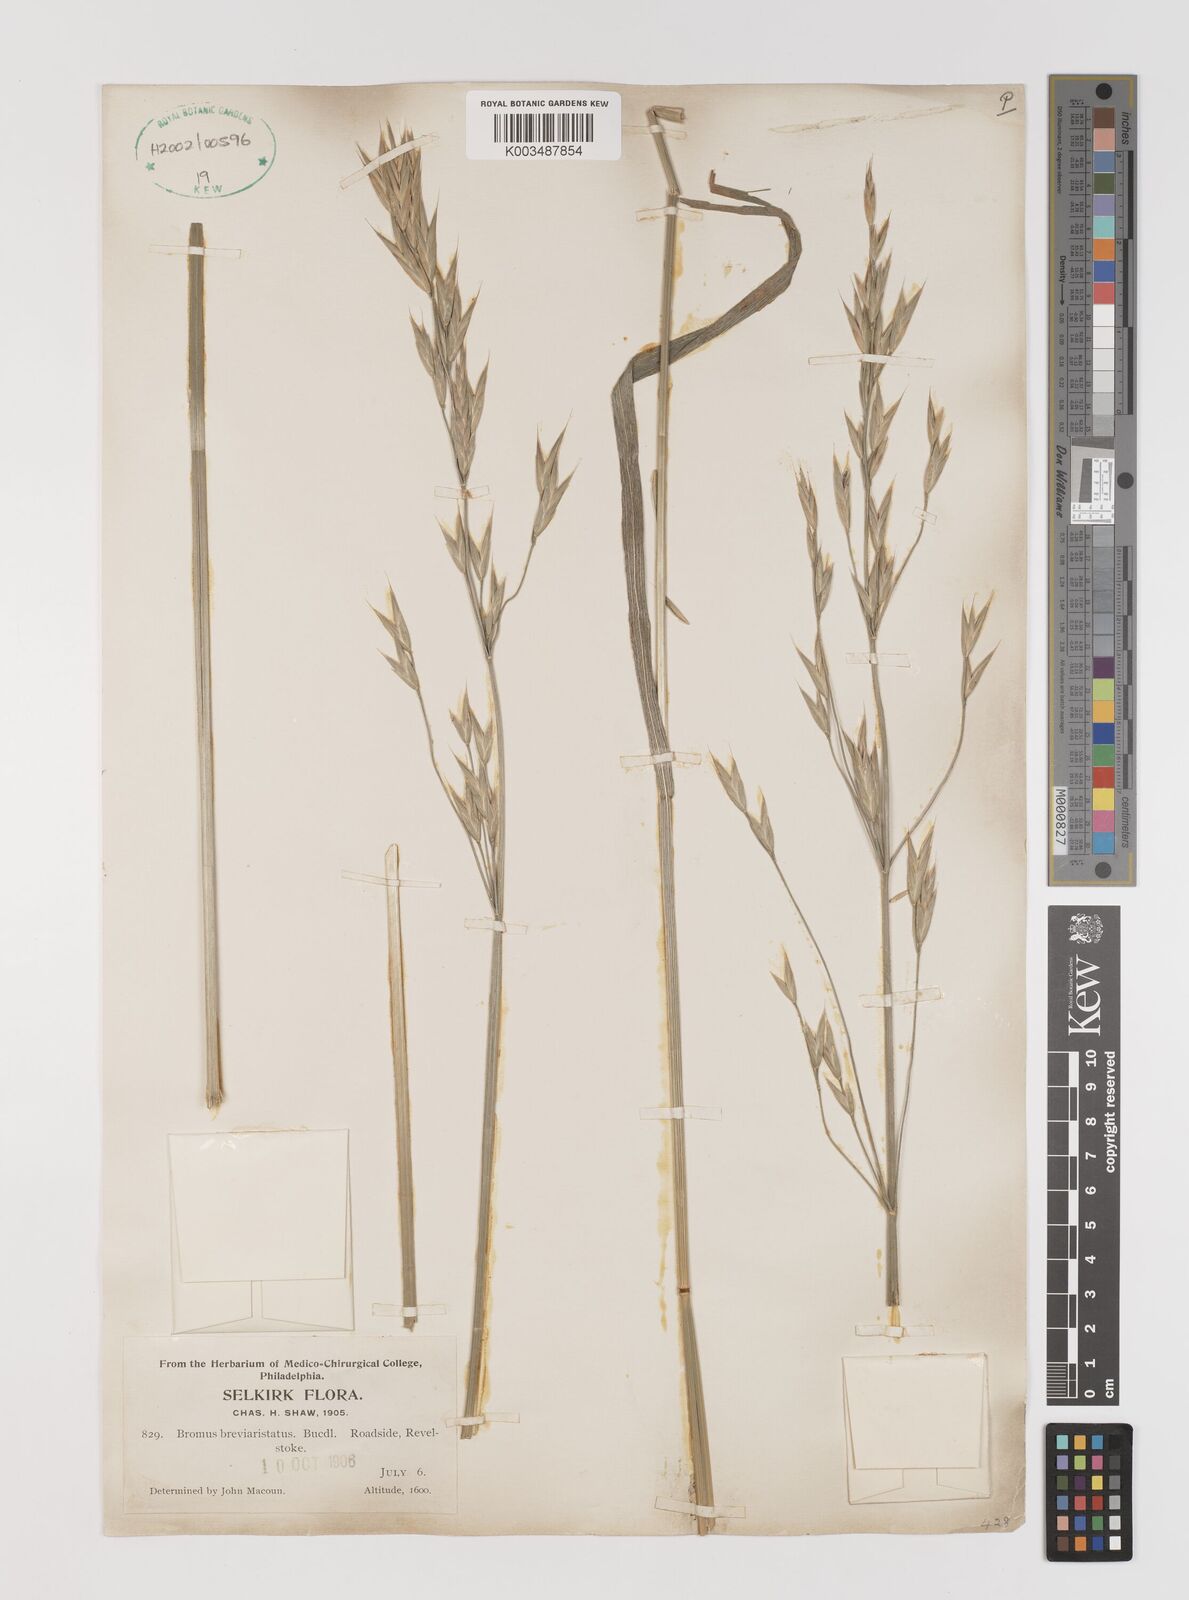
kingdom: Plantae
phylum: Tracheophyta
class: Liliopsida
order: Poales
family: Poaceae
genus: Bromus
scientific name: Bromus catharticus
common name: Rescuegrass
